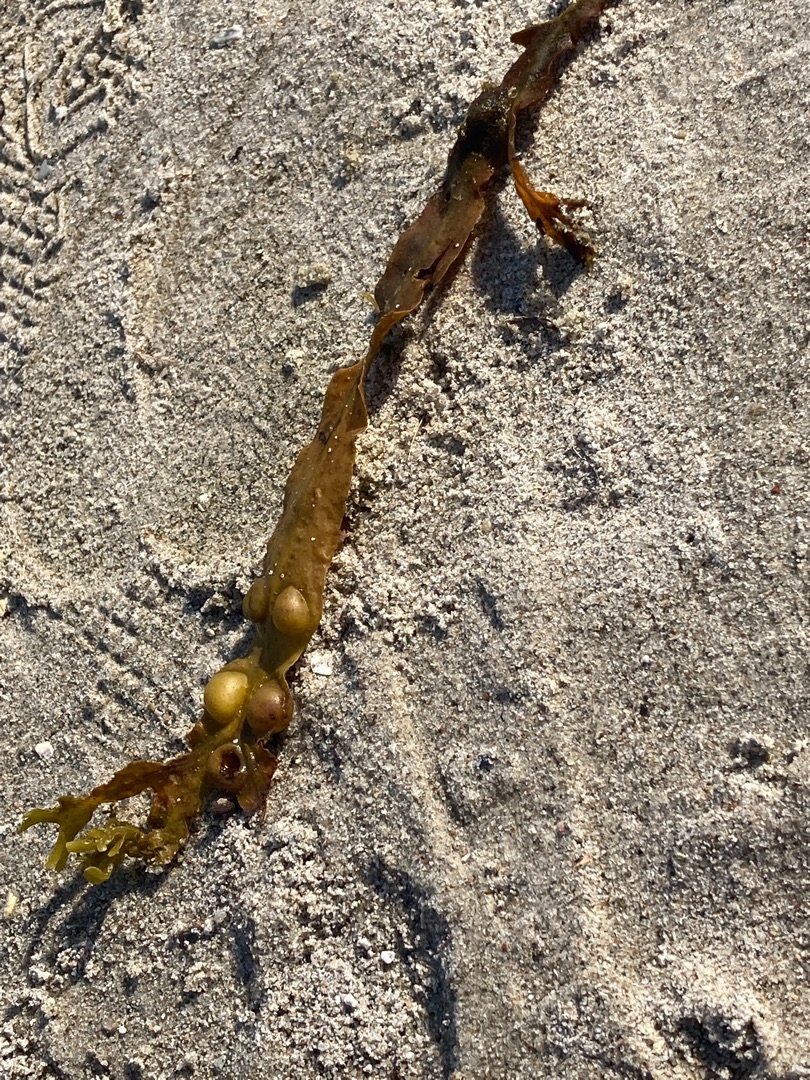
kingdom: Chromista
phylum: Ochrophyta
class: Phaeophyceae
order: Fucales
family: Fucaceae
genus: Fucus
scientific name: Fucus vesiculosus
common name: Blæretang
